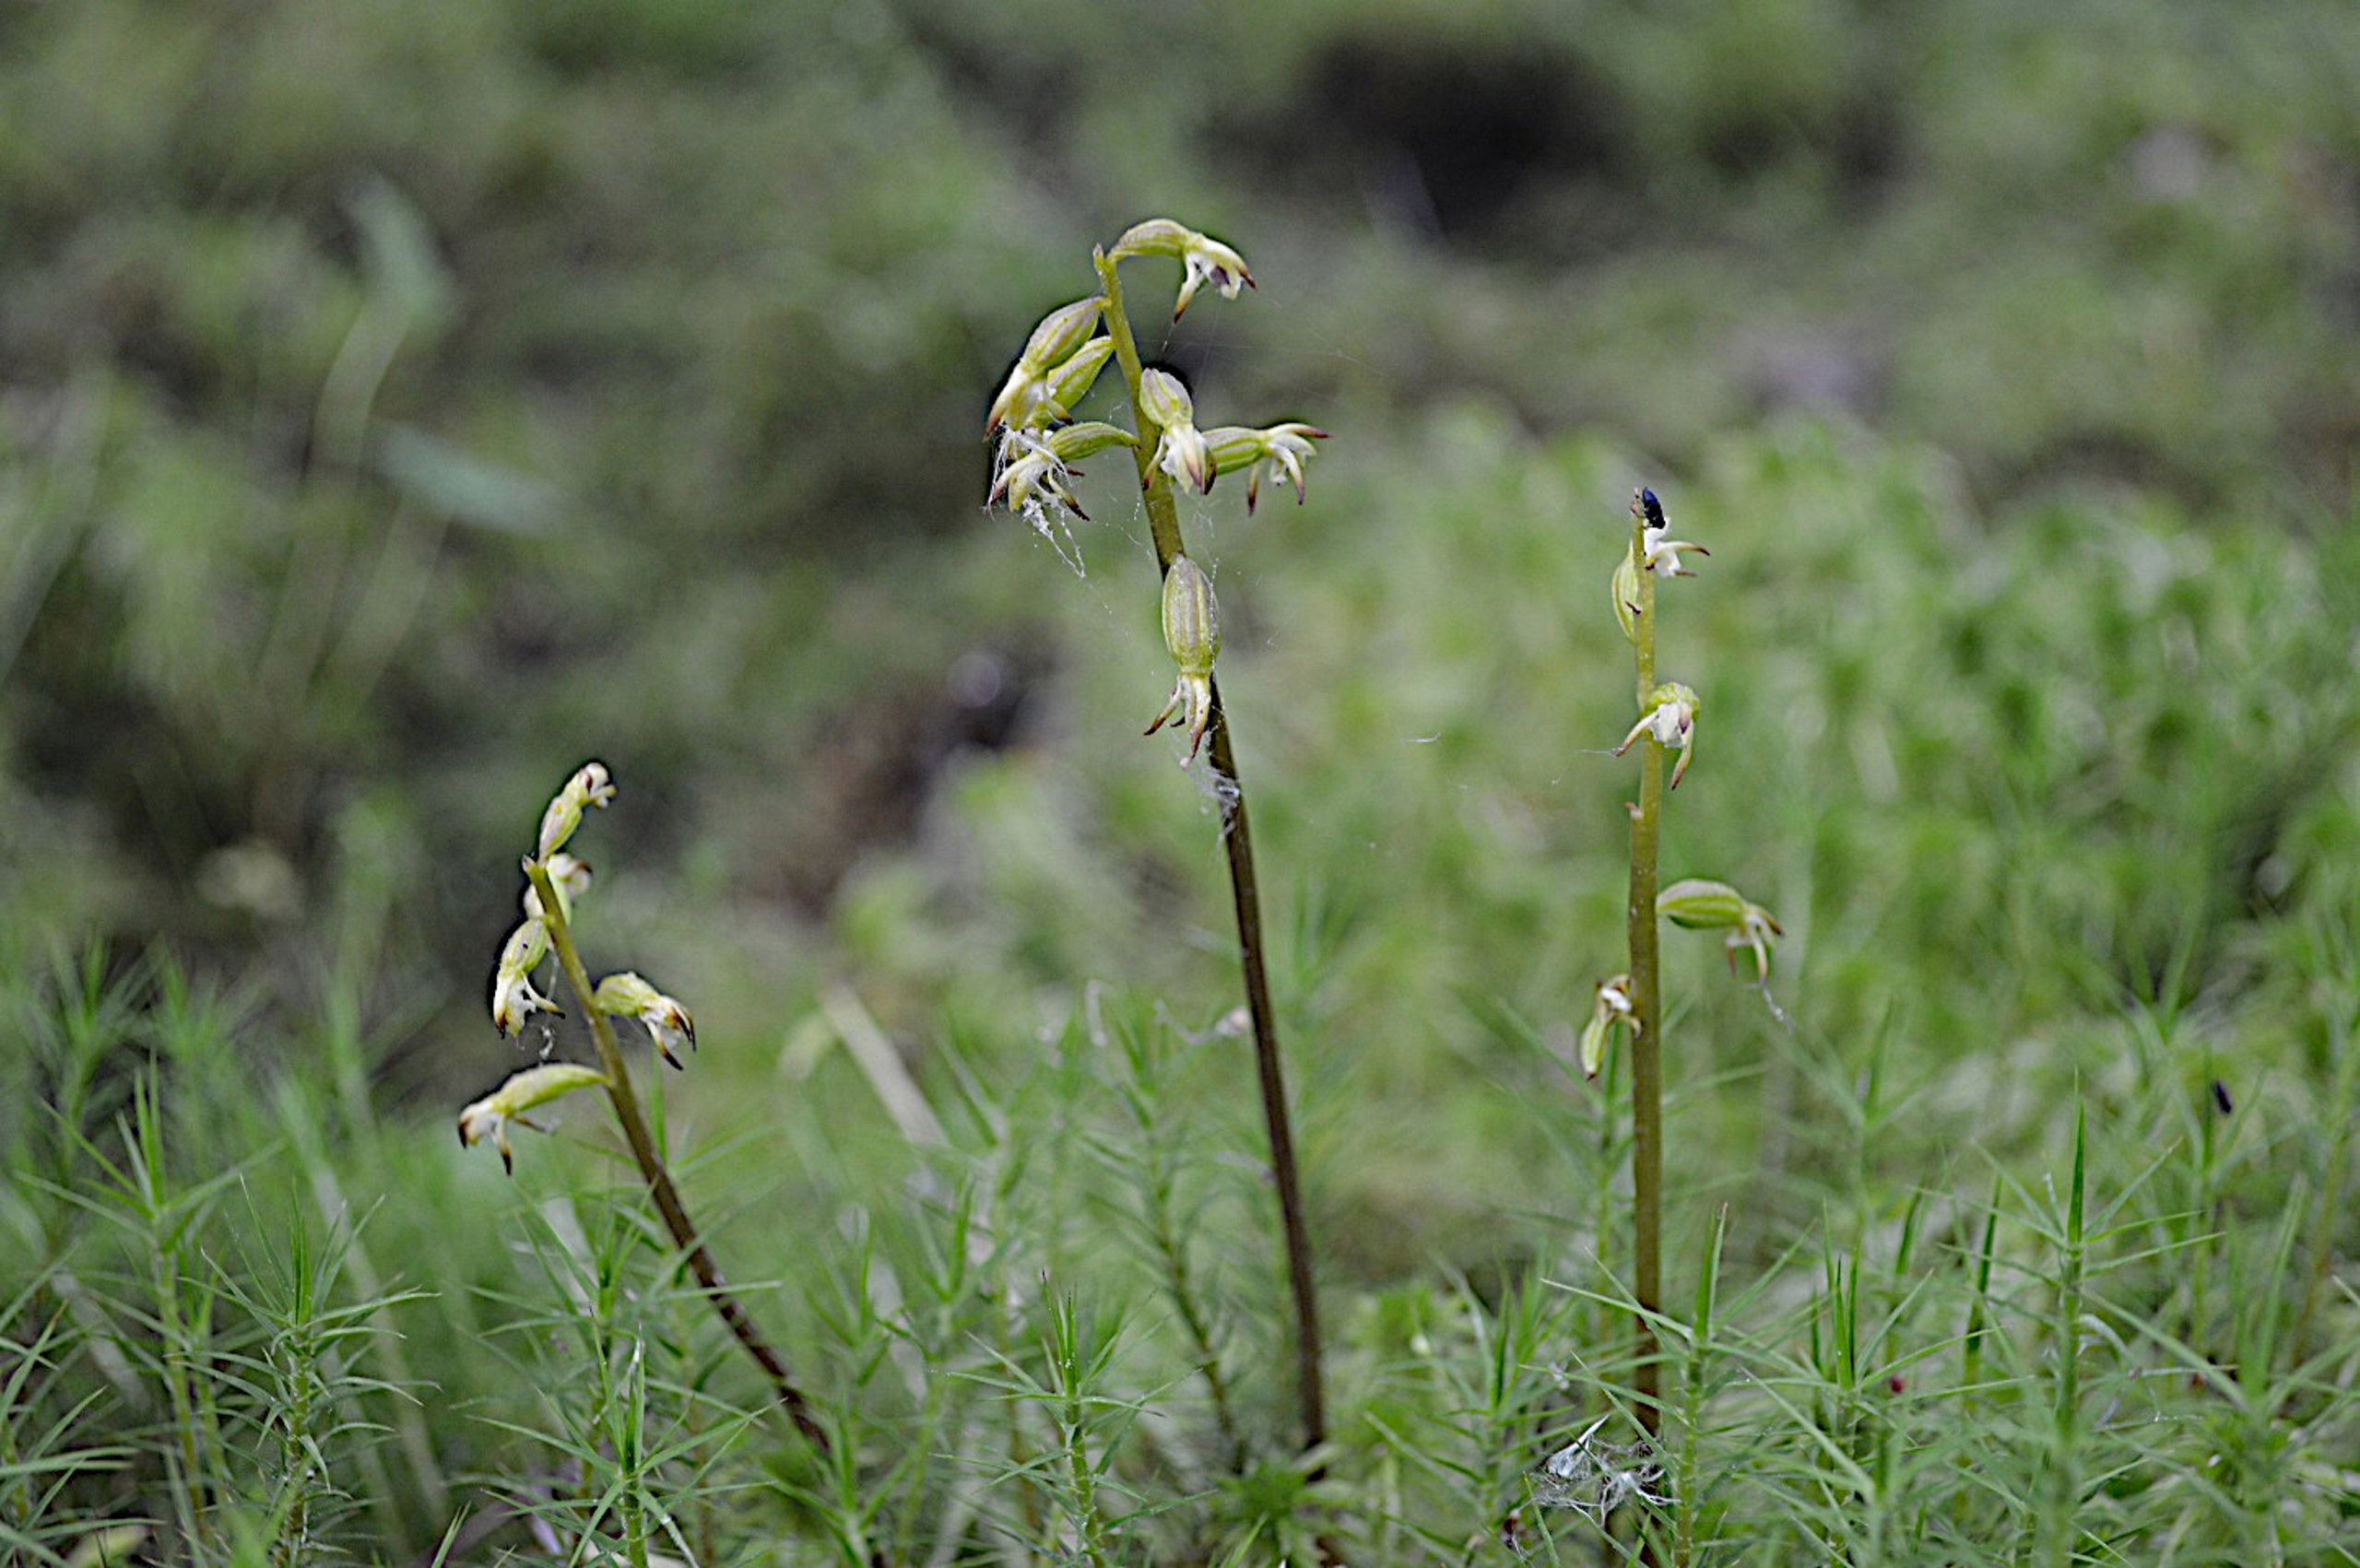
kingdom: Plantae
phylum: Tracheophyta
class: Liliopsida
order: Asparagales
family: Orchidaceae
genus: Corallorhiza
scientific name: Corallorhiza trifida
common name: Koralrod
